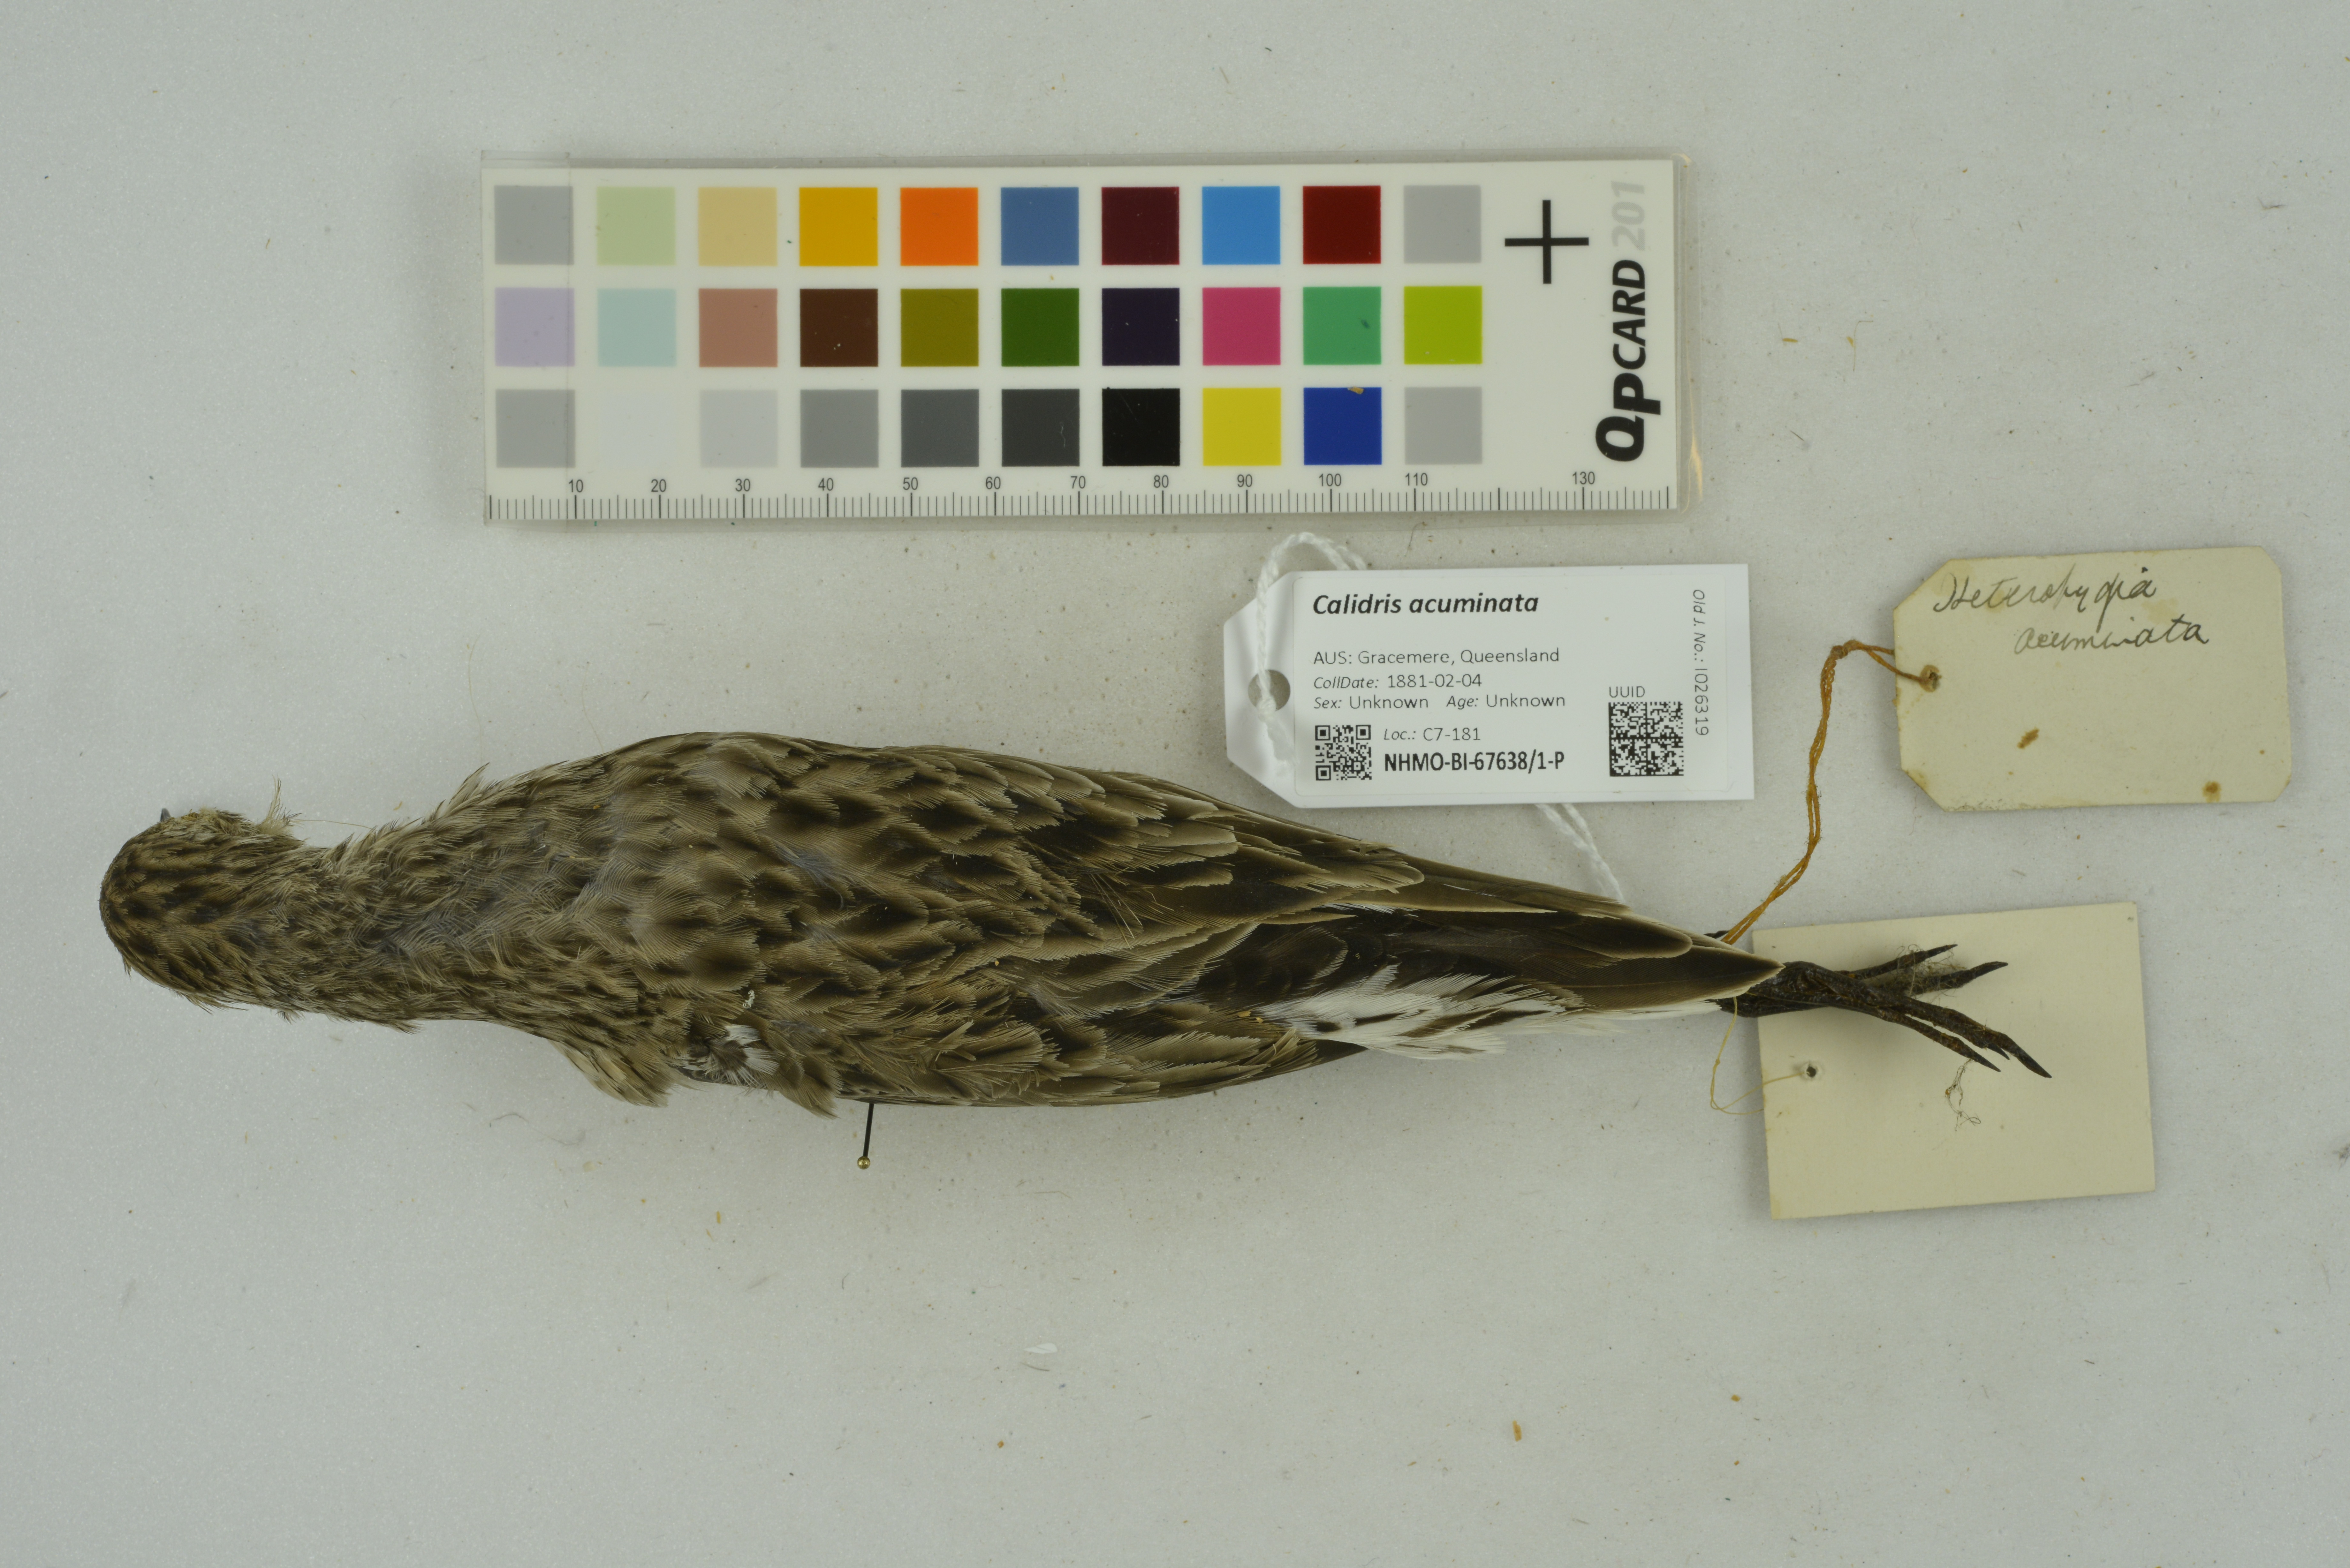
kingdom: Animalia
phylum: Chordata
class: Aves
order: Charadriiformes
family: Scolopacidae
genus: Calidris
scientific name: Calidris acuminata
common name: Sharp-tailed sandpiper
